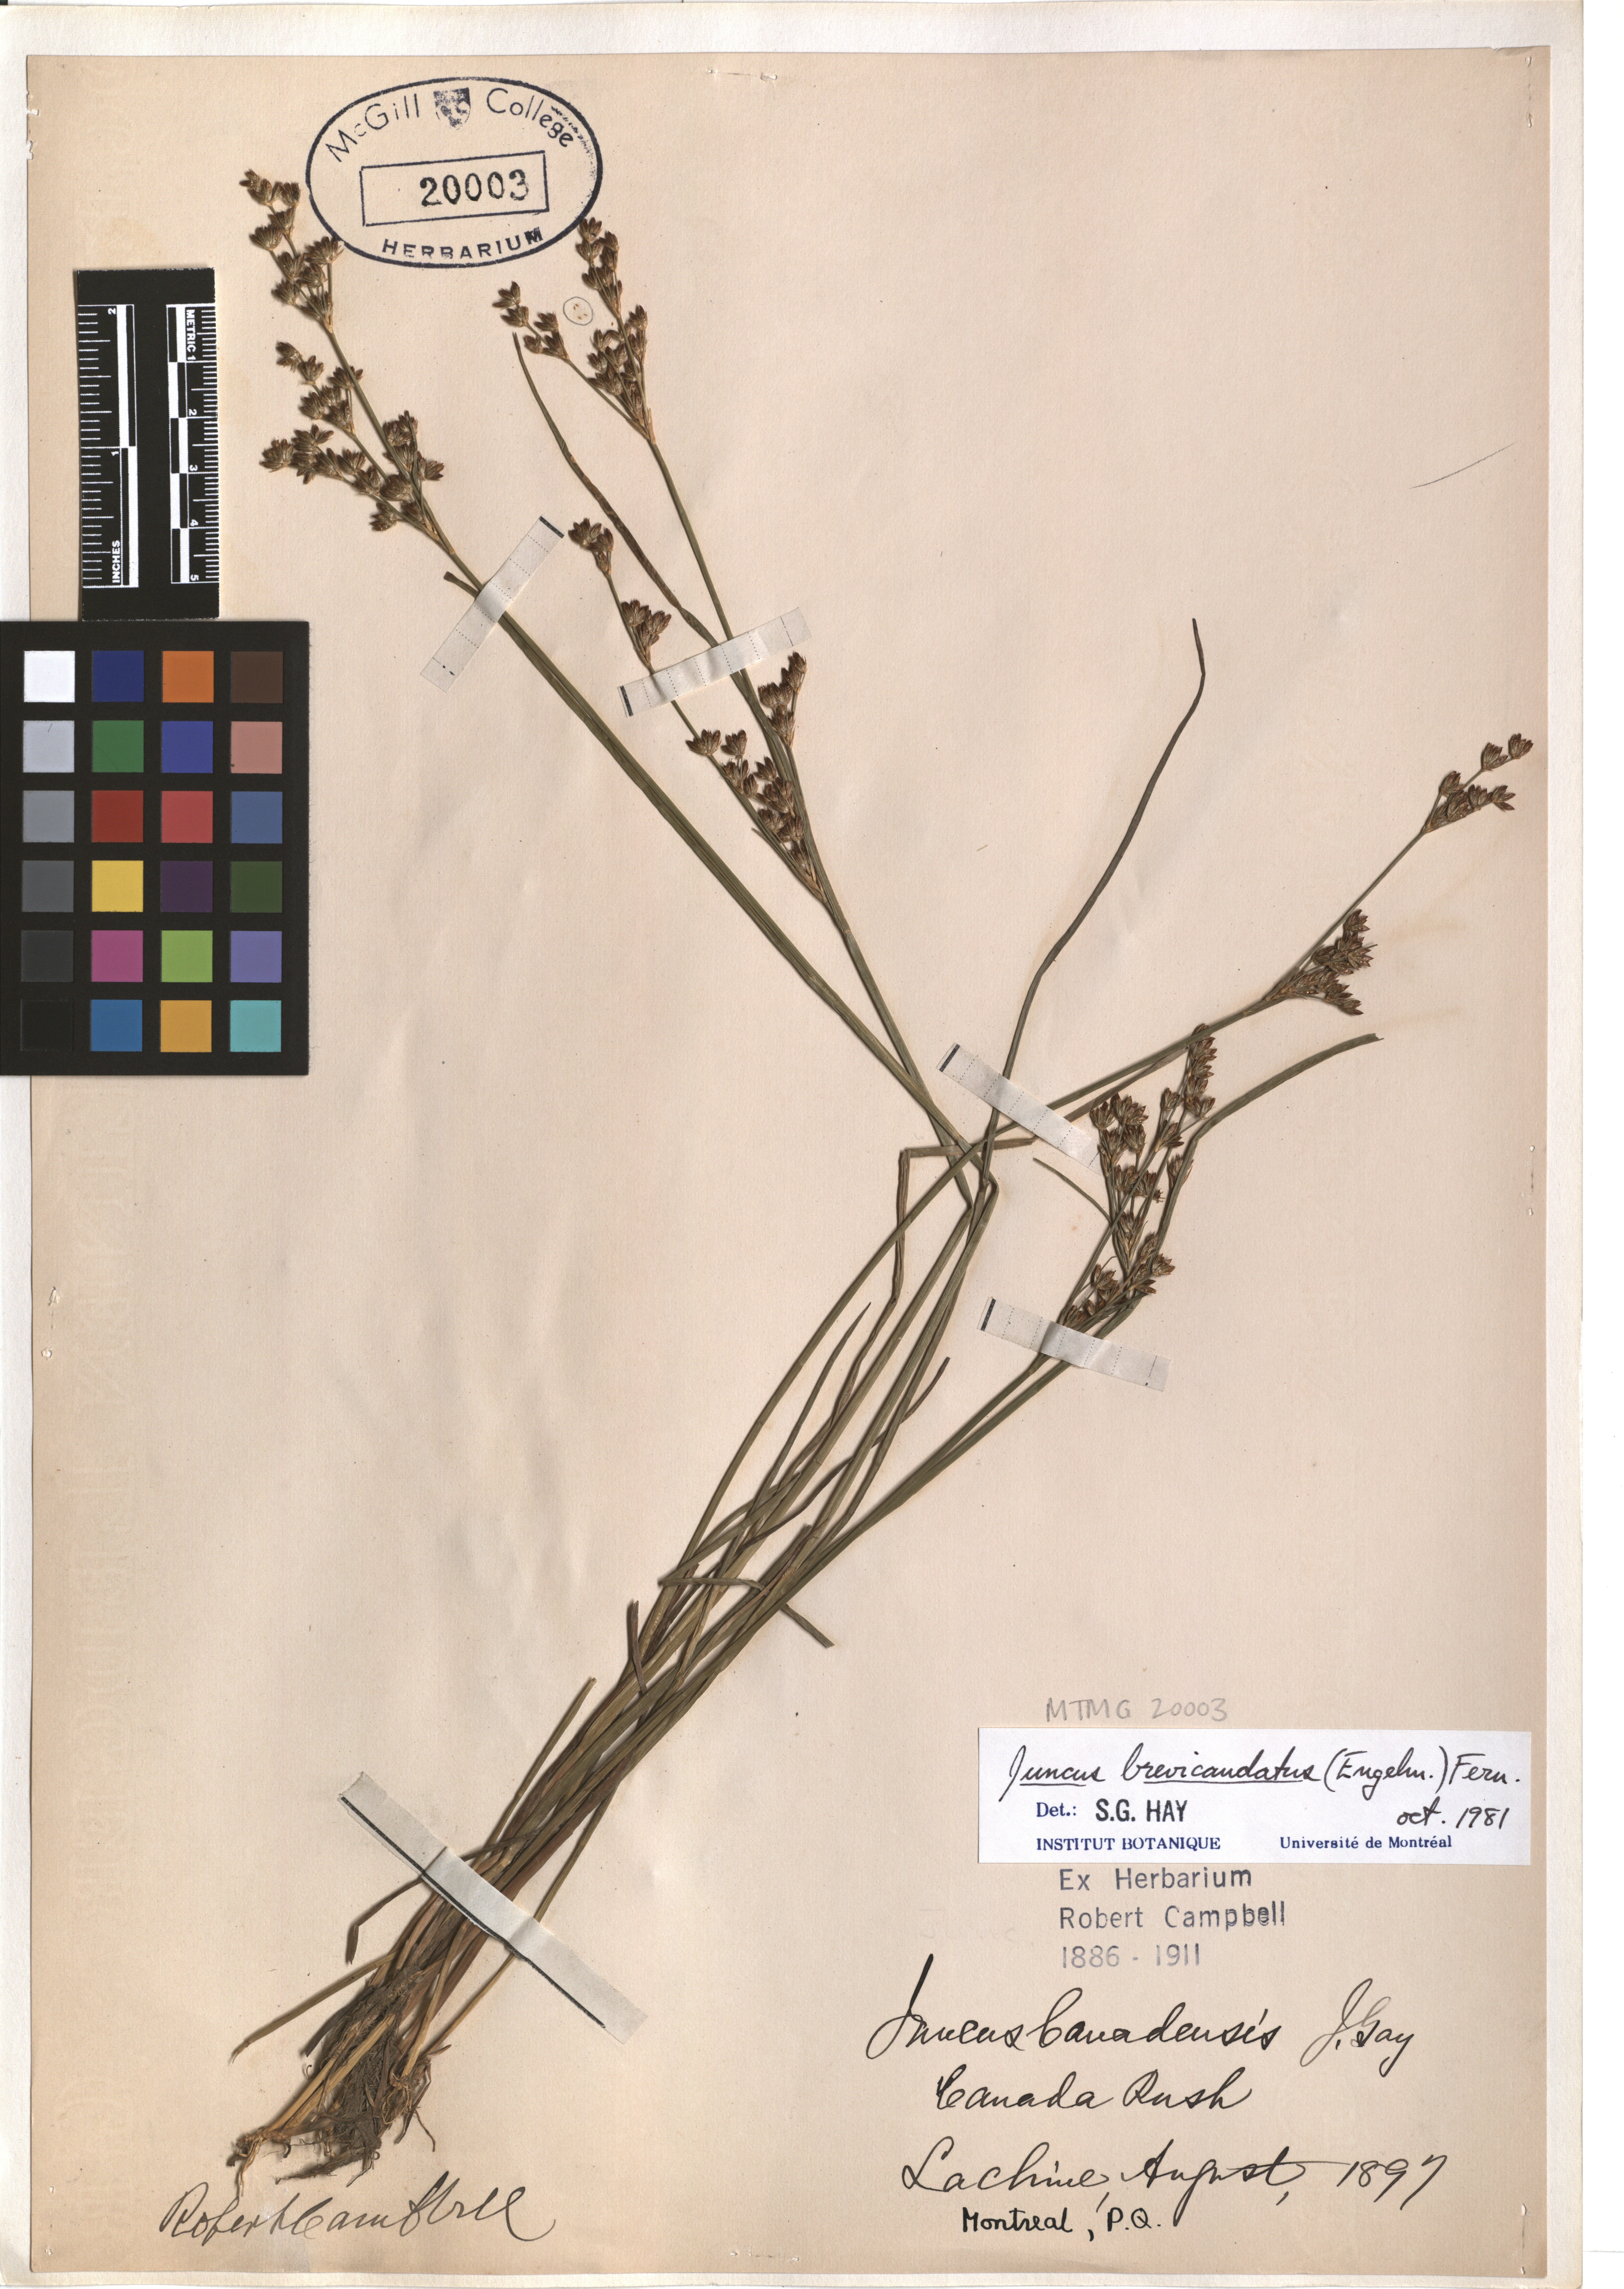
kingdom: Plantae
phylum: Tracheophyta
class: Liliopsida
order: Poales
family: Juncaceae
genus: Juncus
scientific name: Juncus brevicaudatus
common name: Narrow-panicle rush
